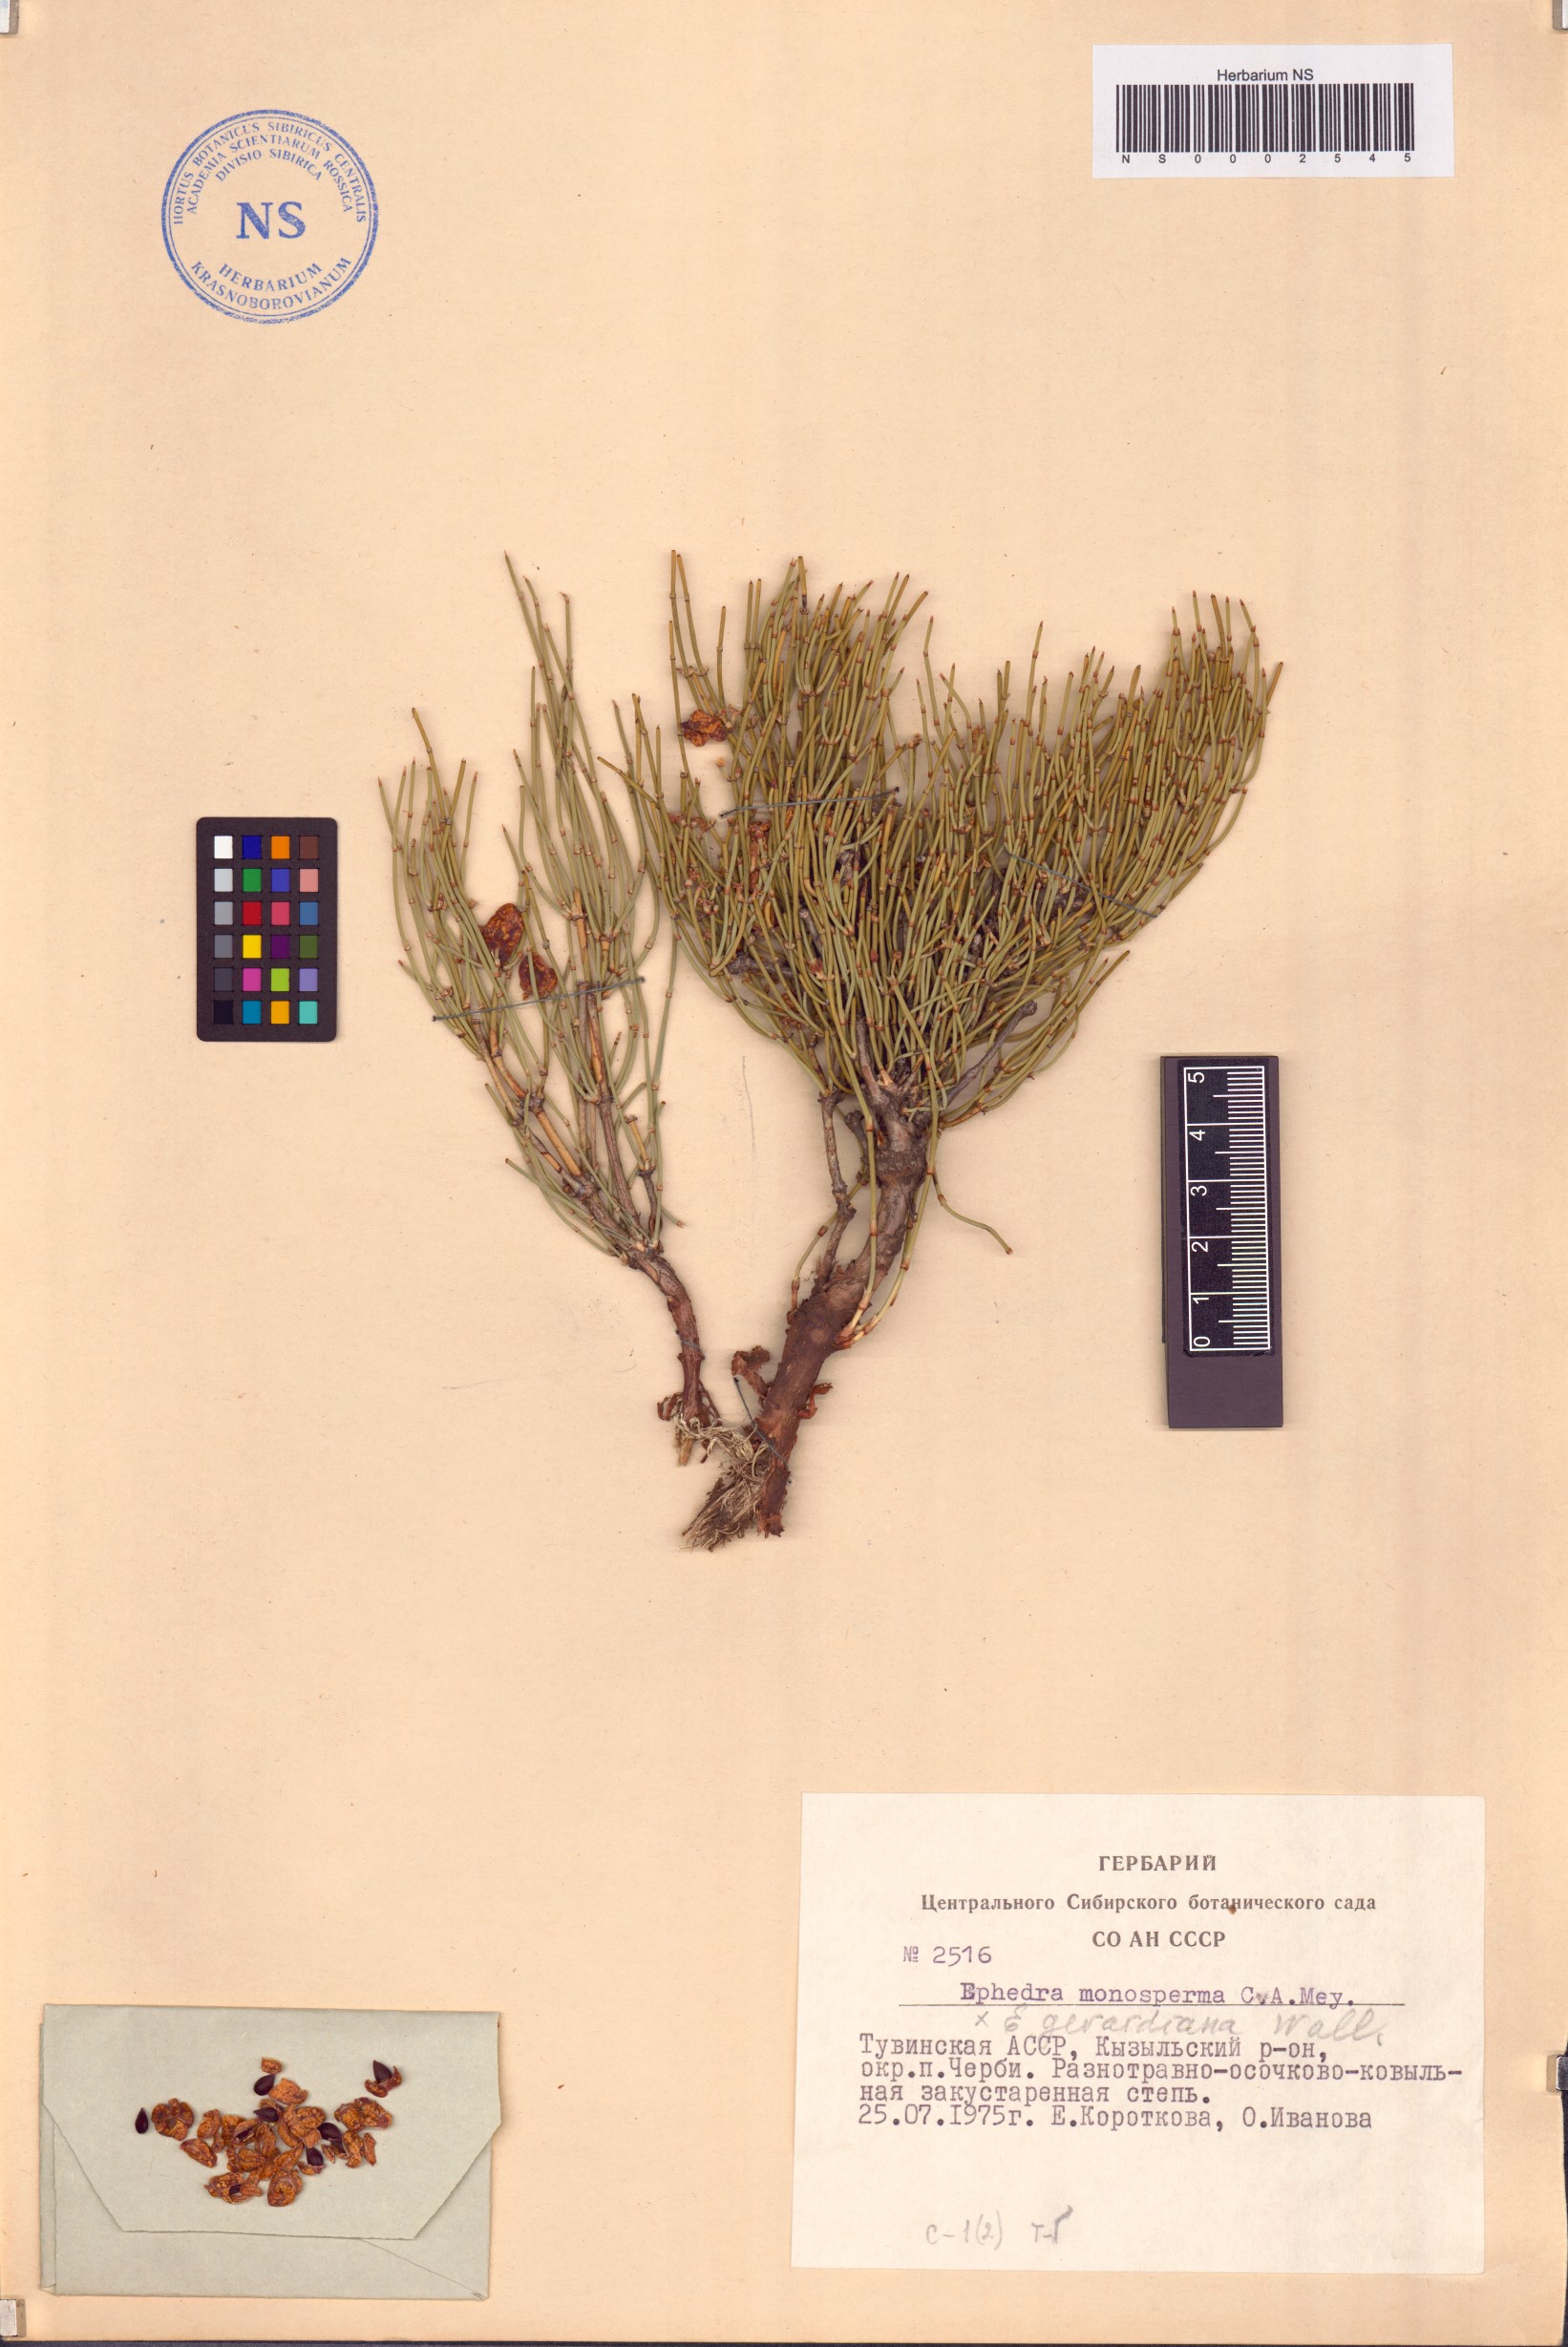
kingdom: Plantae
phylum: Tracheophyta
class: Gnetopsida
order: Ephedrales
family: Ephedraceae
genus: Ephedra
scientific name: Ephedra monosperma
